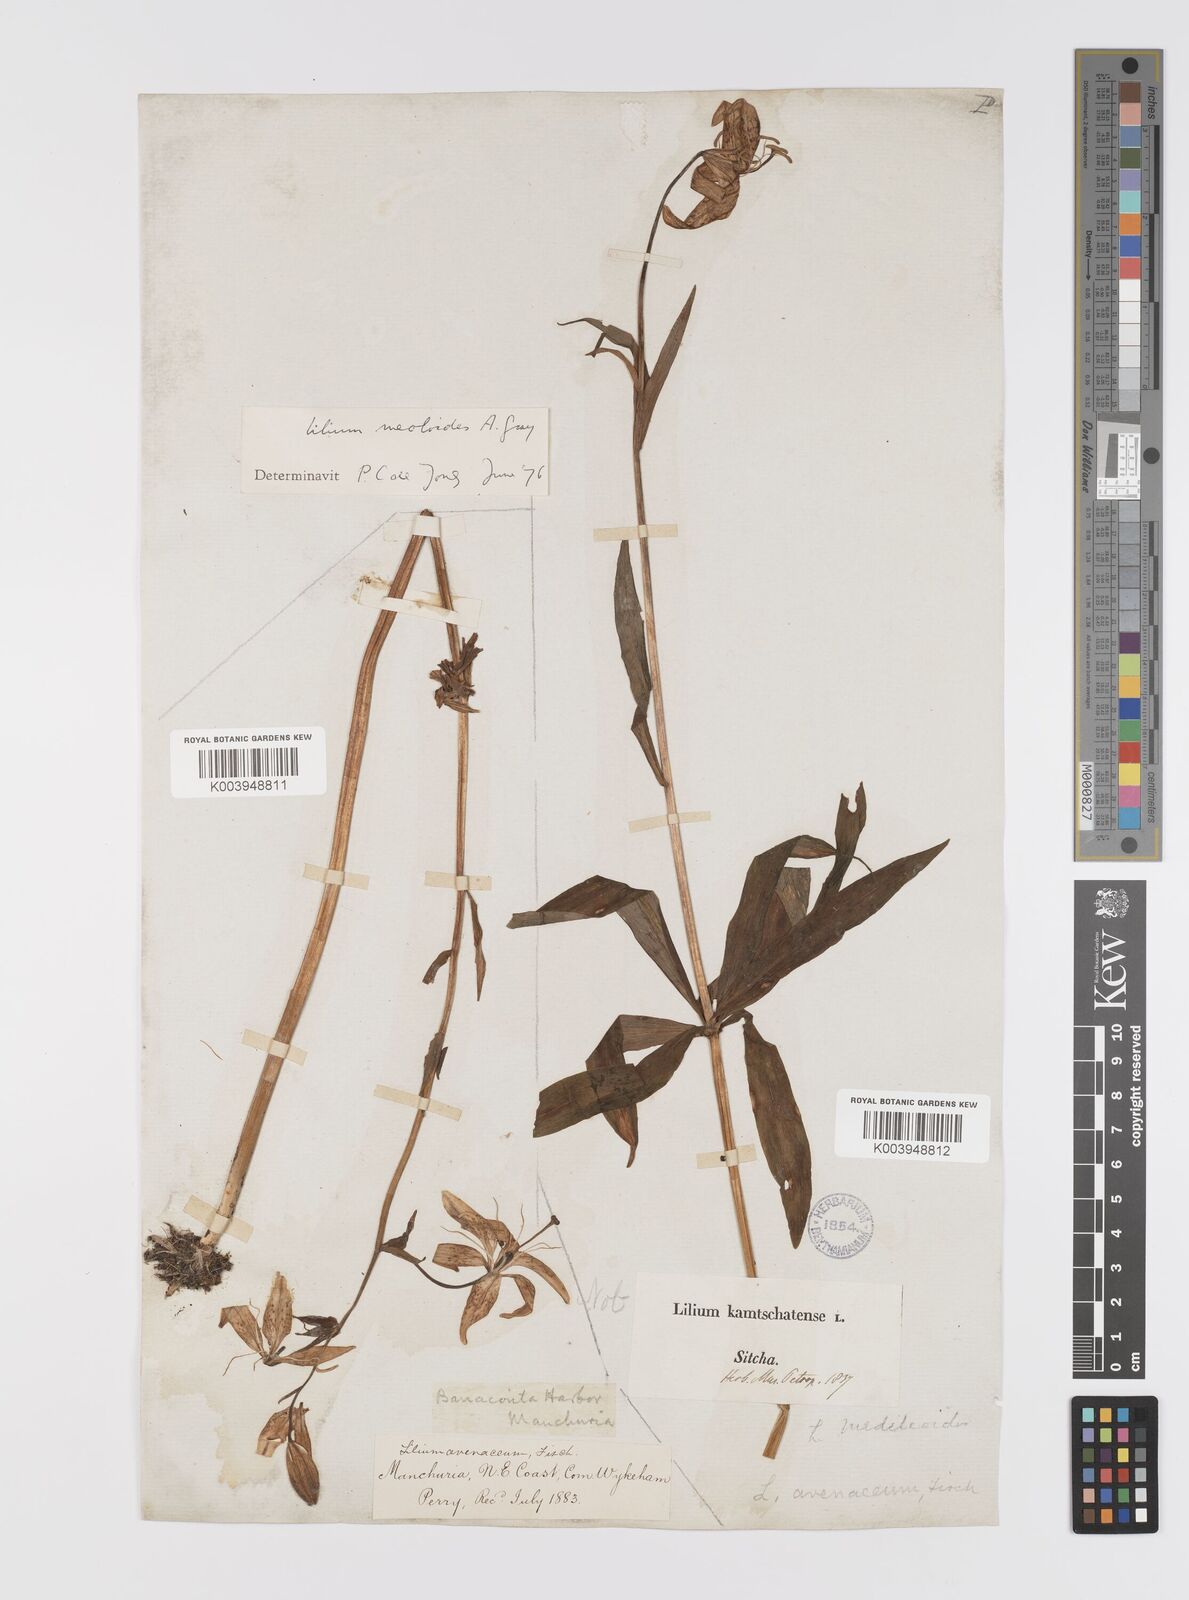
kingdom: Plantae
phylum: Tracheophyta
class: Liliopsida
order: Liliales
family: Liliaceae
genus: Lilium
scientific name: Lilium medeoloides
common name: Wheel lily
